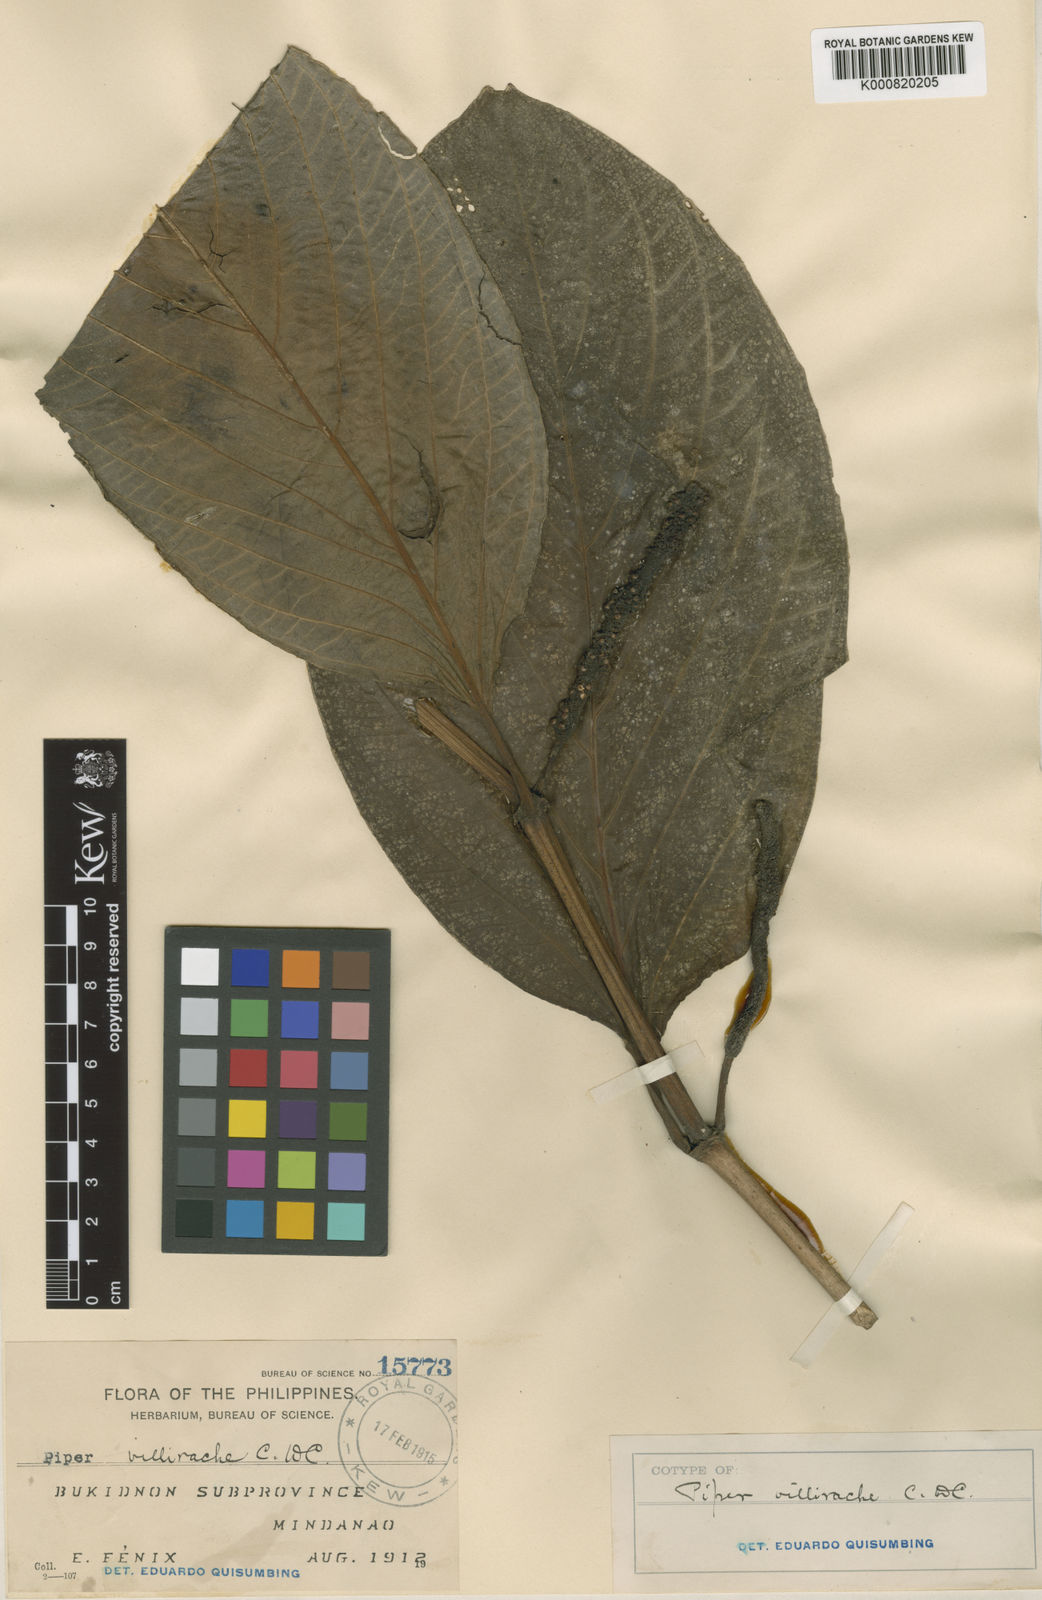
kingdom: Plantae
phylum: Tracheophyta
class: Magnoliopsida
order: Piperales
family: Piperaceae
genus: Piper
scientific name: Piper celtidiforme
